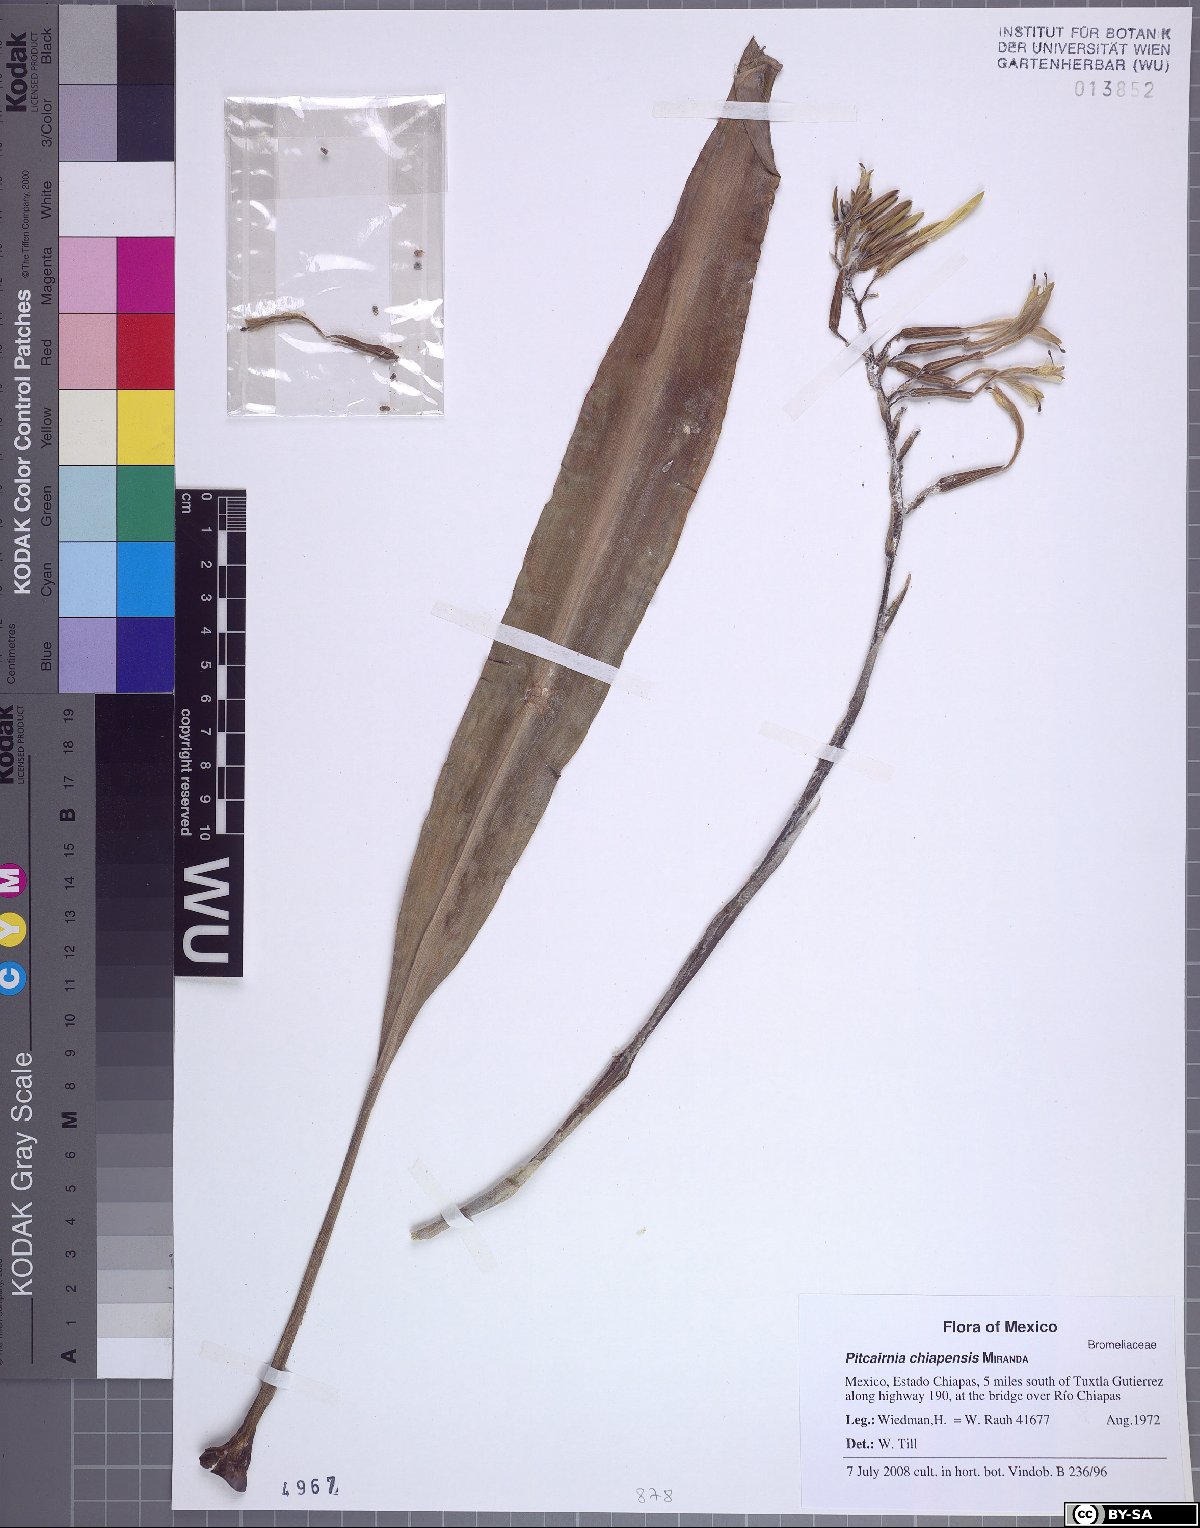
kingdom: Plantae
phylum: Tracheophyta
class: Liliopsida
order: Poales
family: Bromeliaceae
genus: Pitcairnia
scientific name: Pitcairnia chiapensis
